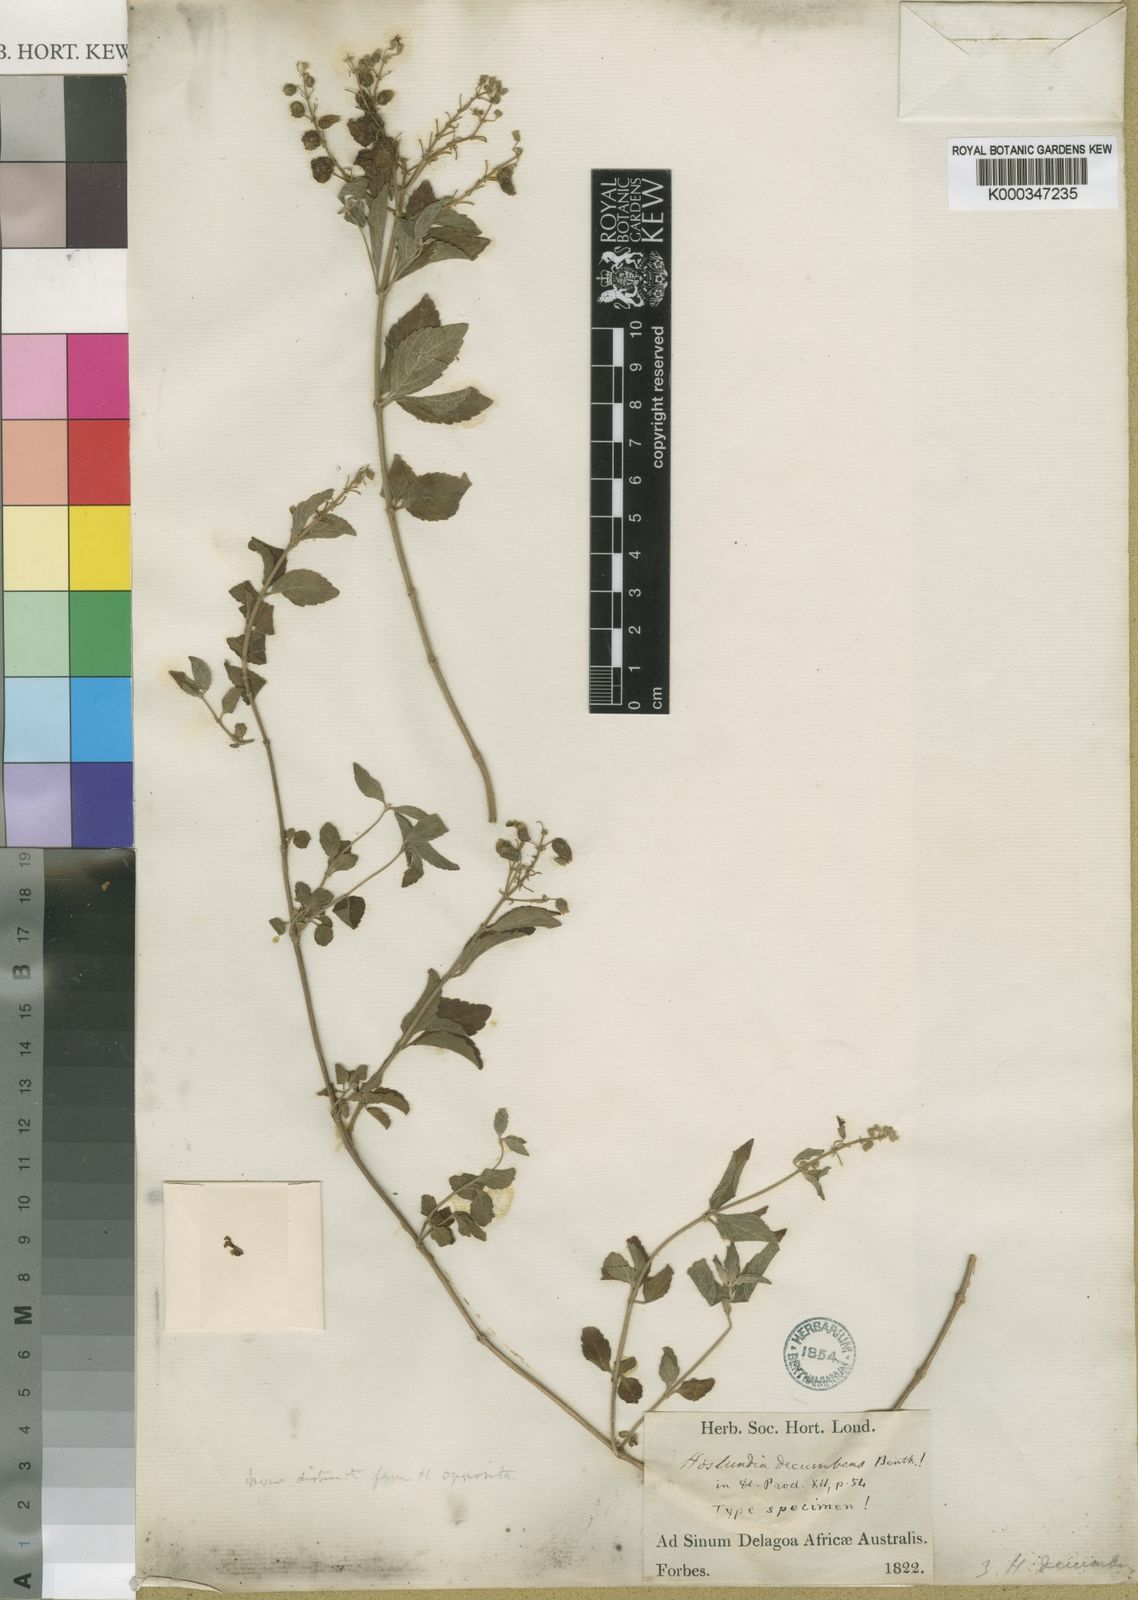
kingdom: Plantae
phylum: Tracheophyta
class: Magnoliopsida
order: Lamiales
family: Lamiaceae
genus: Hoslundia
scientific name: Hoslundia opposita
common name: Kamyuye
